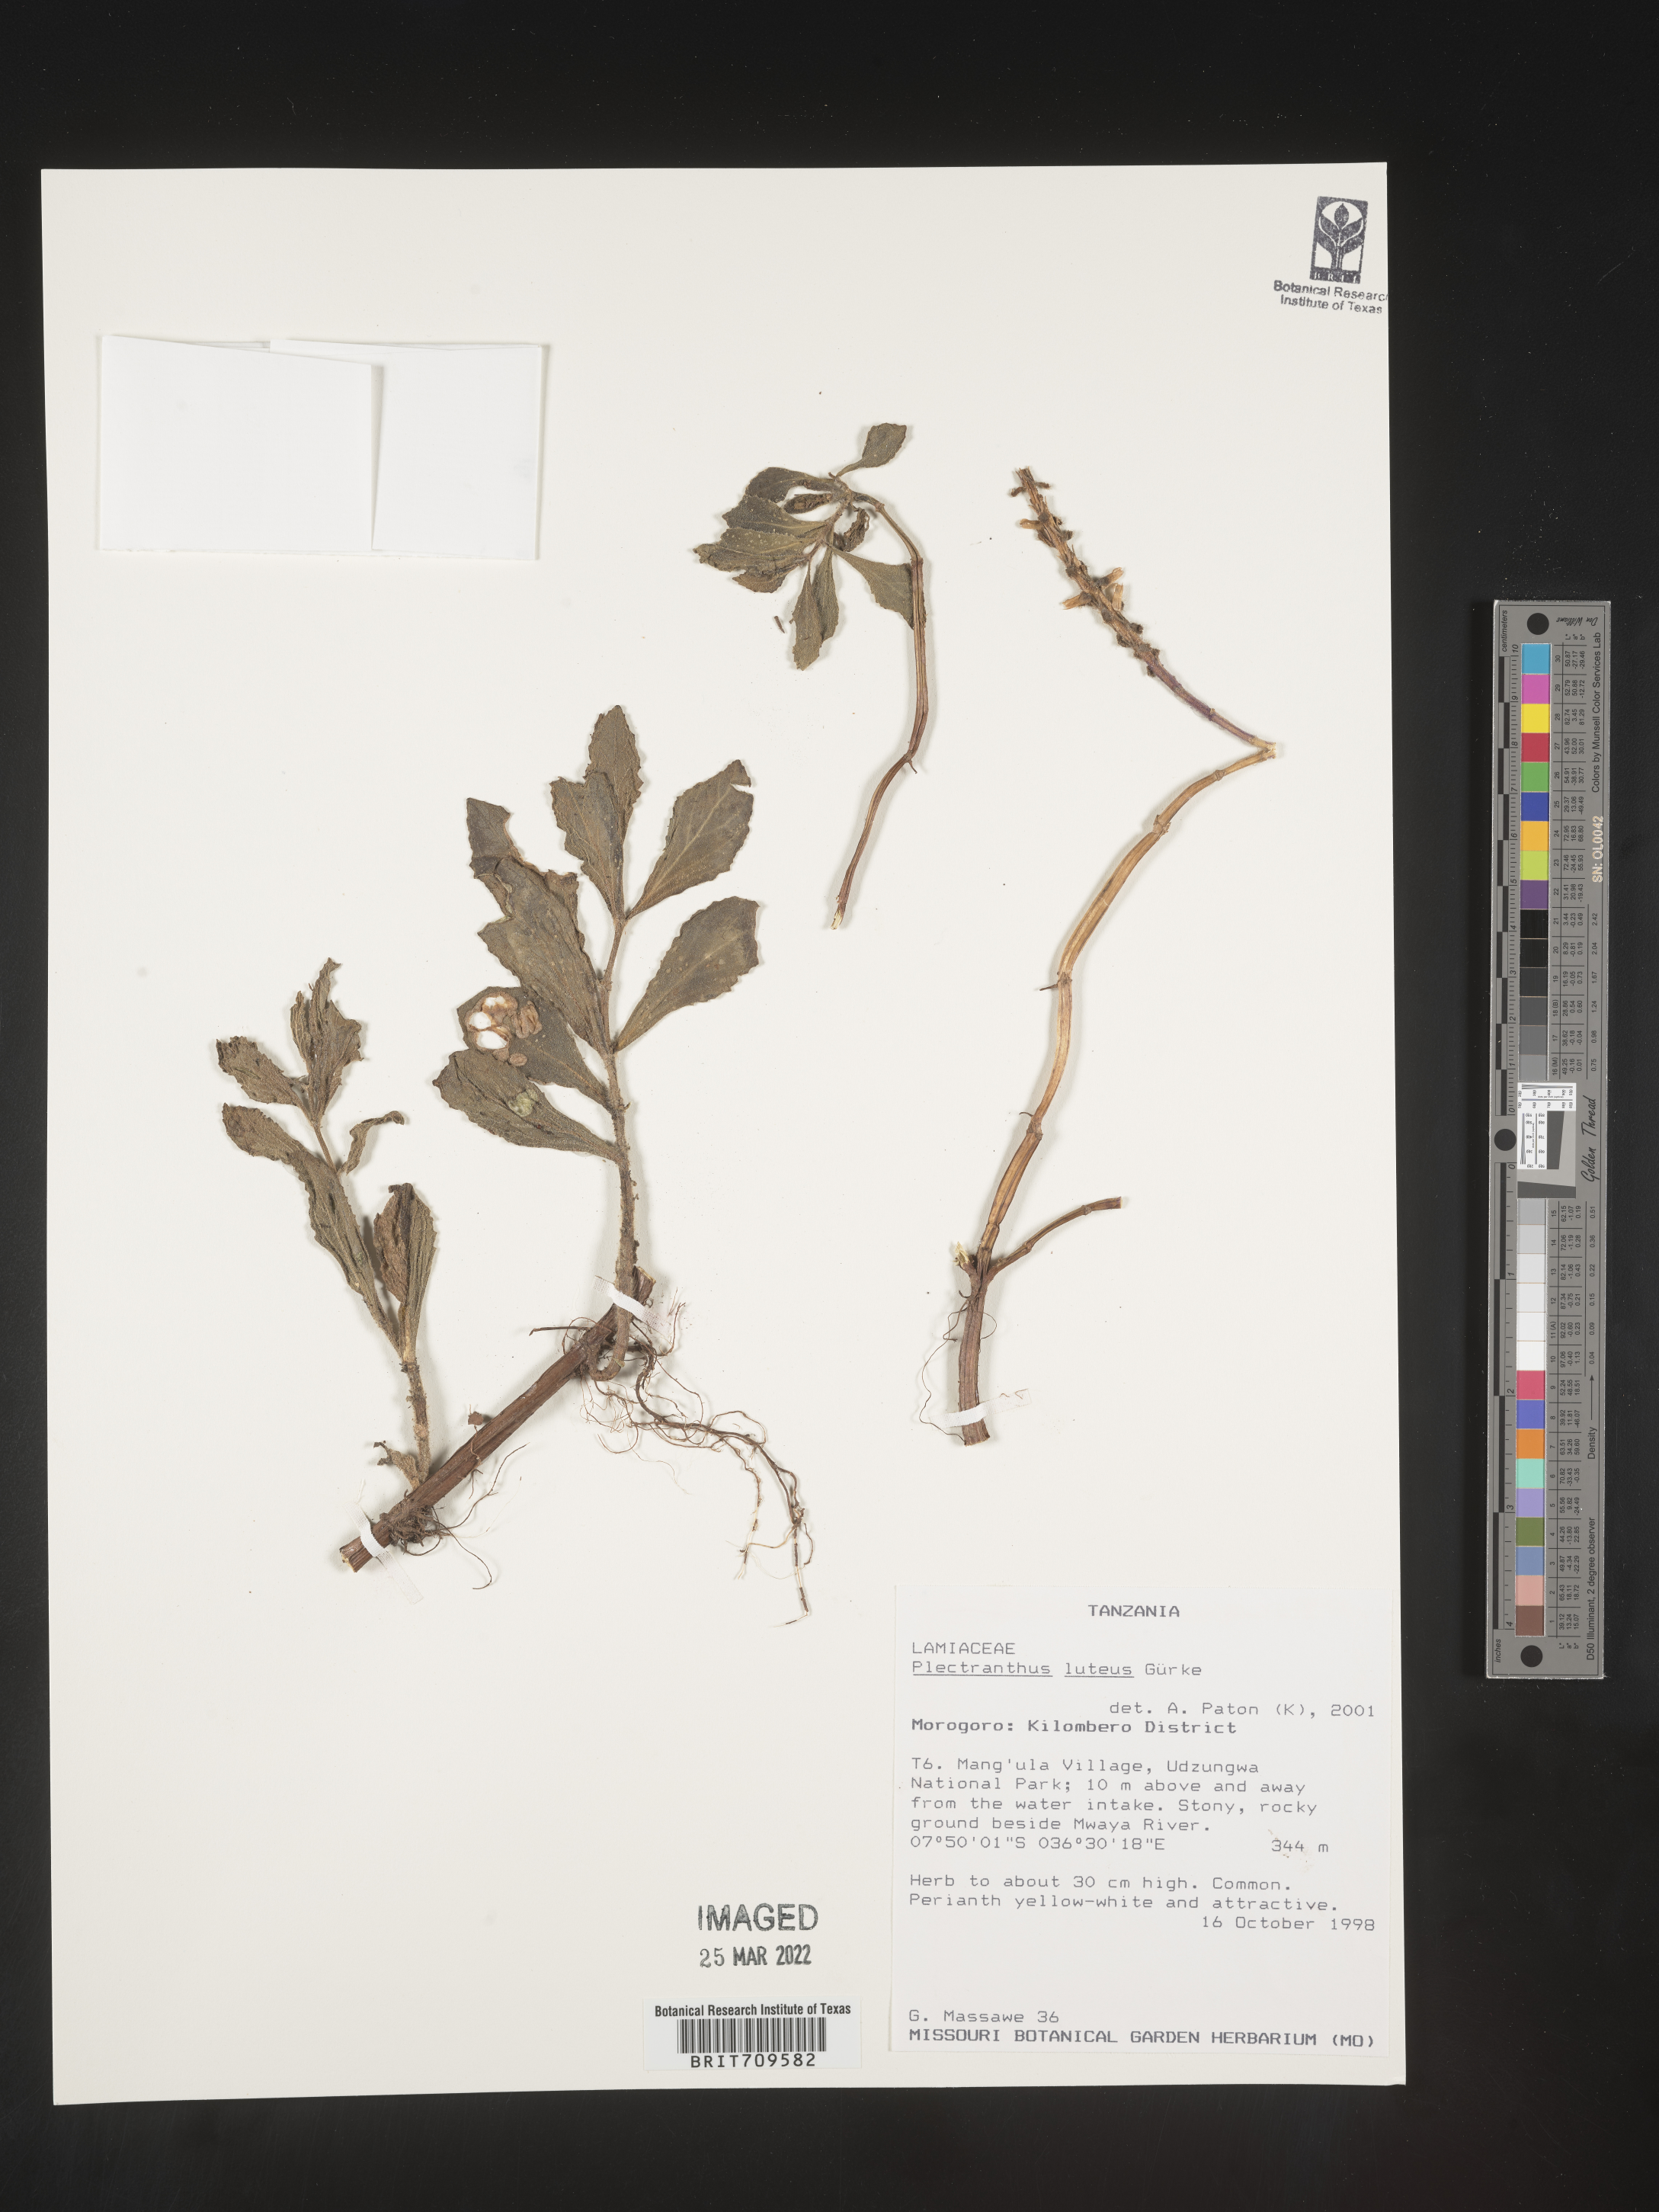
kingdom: Plantae
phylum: Tracheophyta
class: Magnoliopsida
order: Lamiales
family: Lamiaceae
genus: Plectranthus
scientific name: Plectranthus
